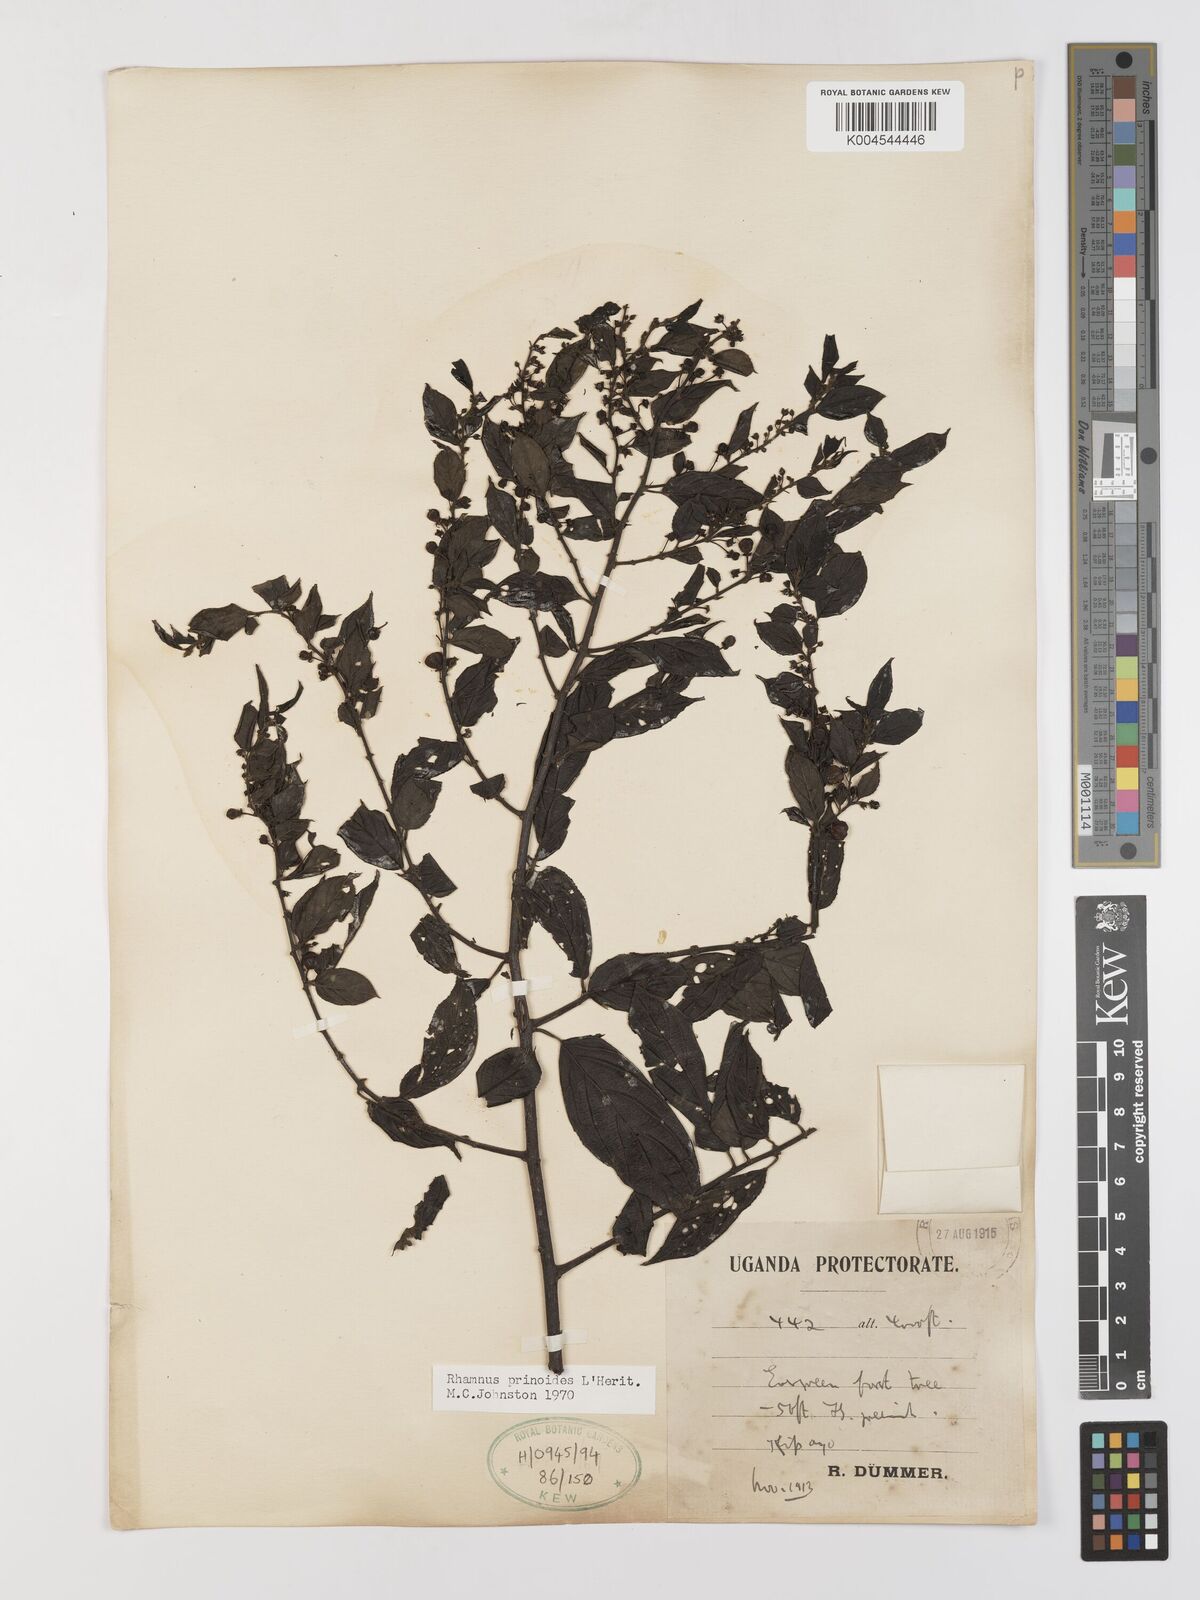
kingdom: Plantae
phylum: Tracheophyta
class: Magnoliopsida
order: Rosales
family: Rhamnaceae
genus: Rhamnus
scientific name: Rhamnus prinoides
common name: Dogwood
